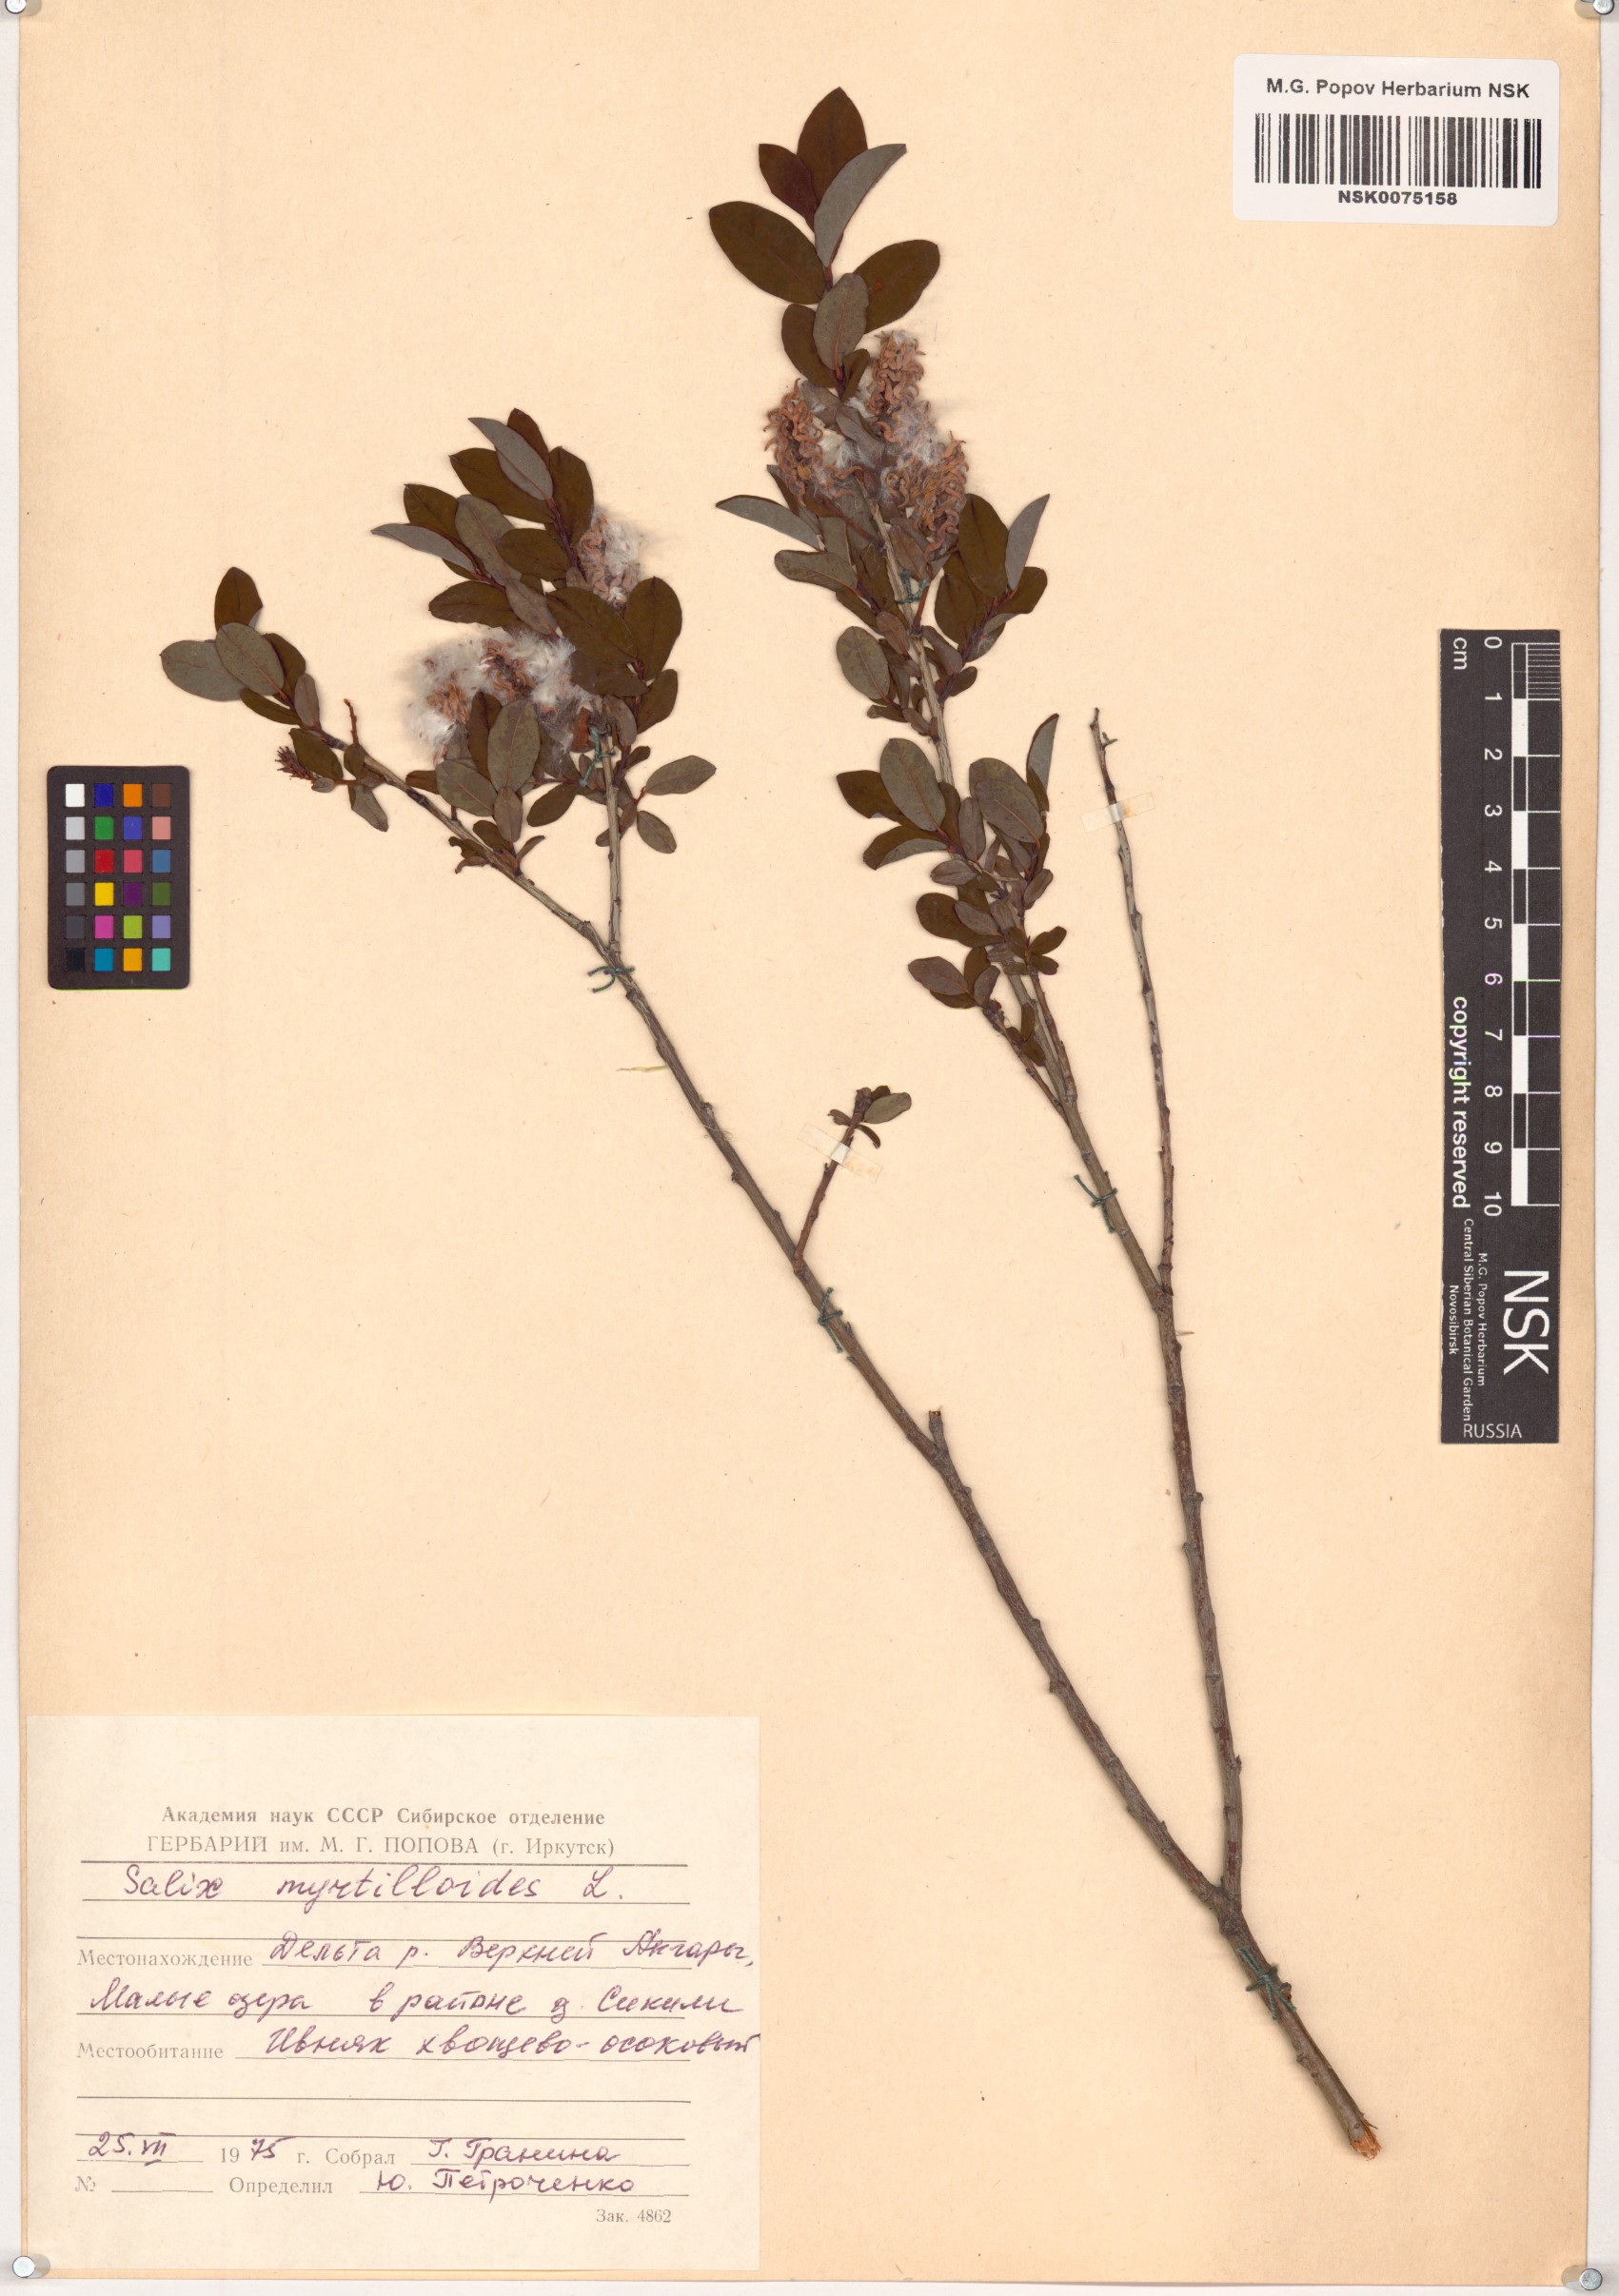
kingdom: Plantae
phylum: Tracheophyta
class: Magnoliopsida
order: Malpighiales
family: Salicaceae
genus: Salix
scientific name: Salix myrtilloides
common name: Myrtle-leaved willow
